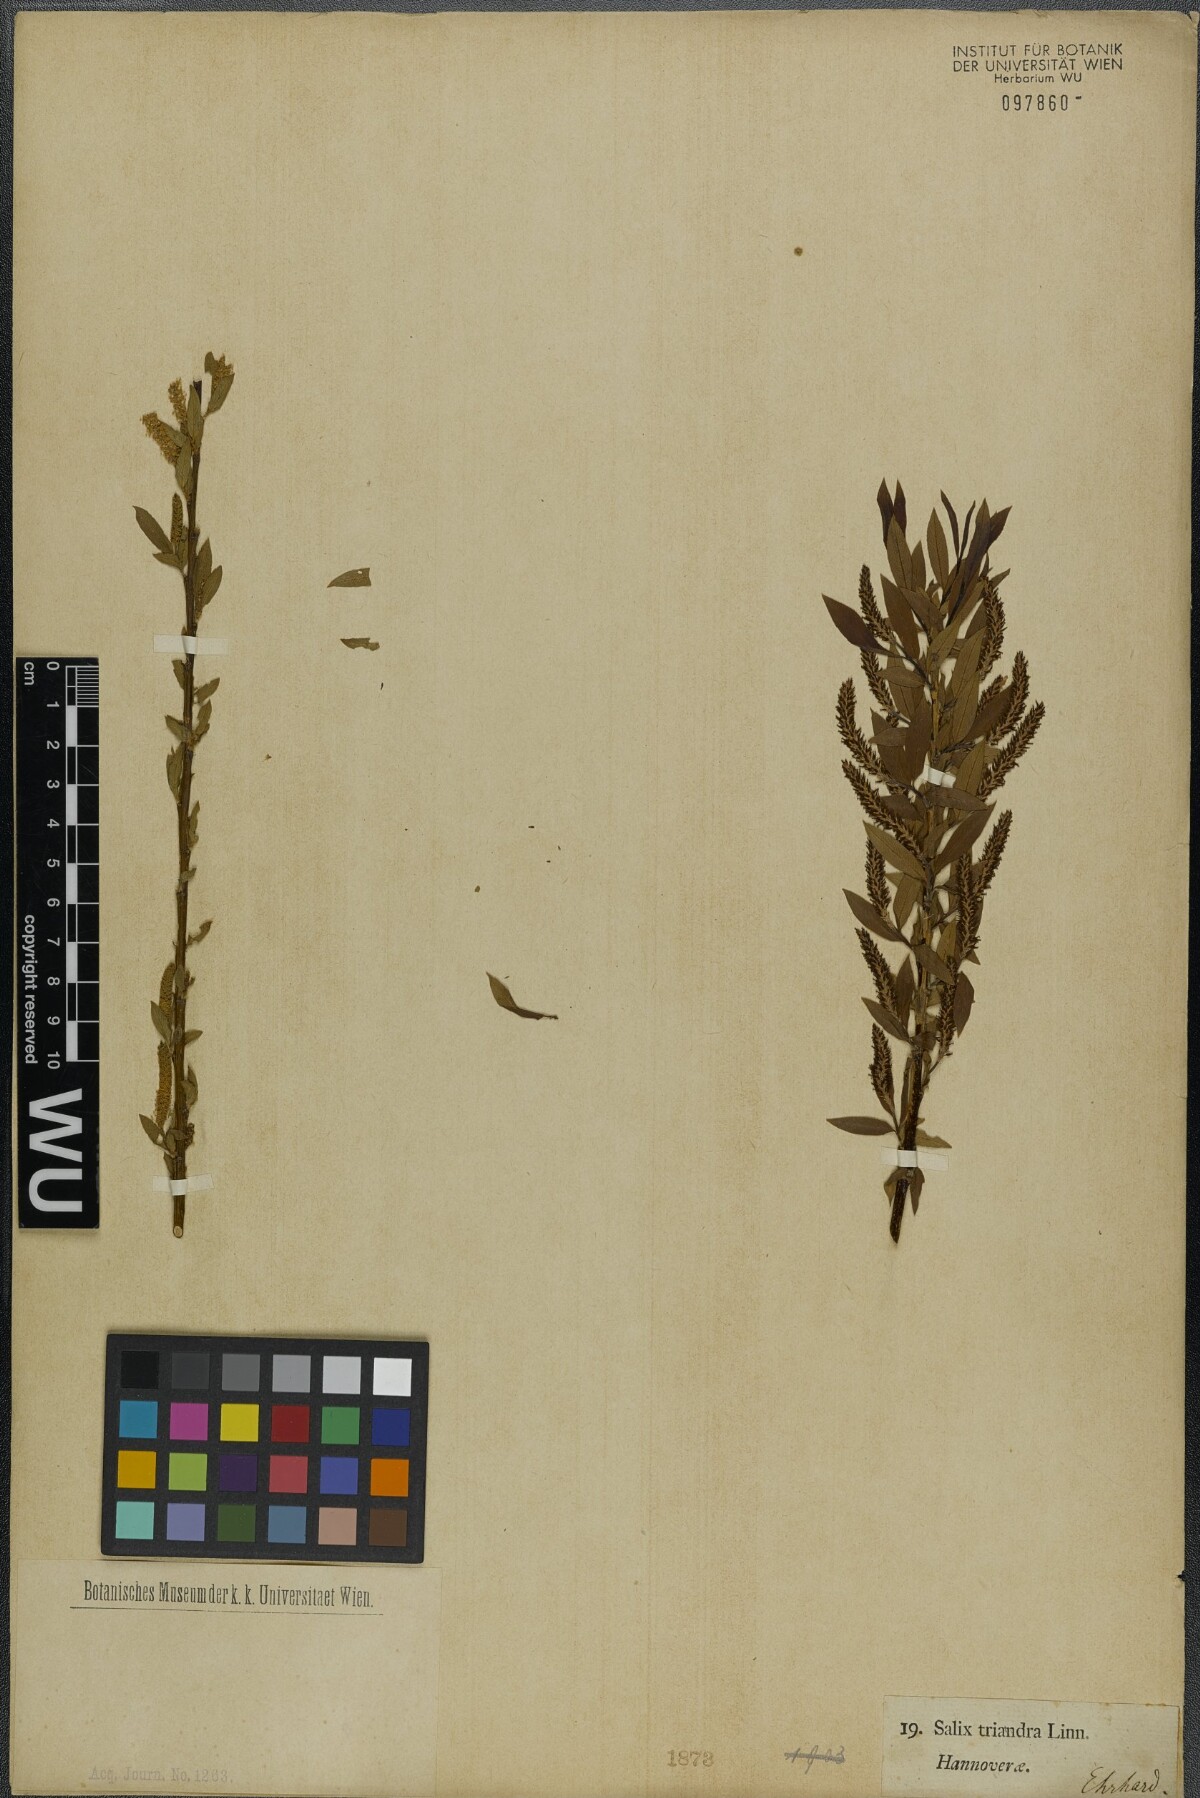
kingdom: Plantae
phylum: Tracheophyta
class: Magnoliopsida
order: Malpighiales
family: Salicaceae
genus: Salix
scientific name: Salix triandra
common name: Almond willow
